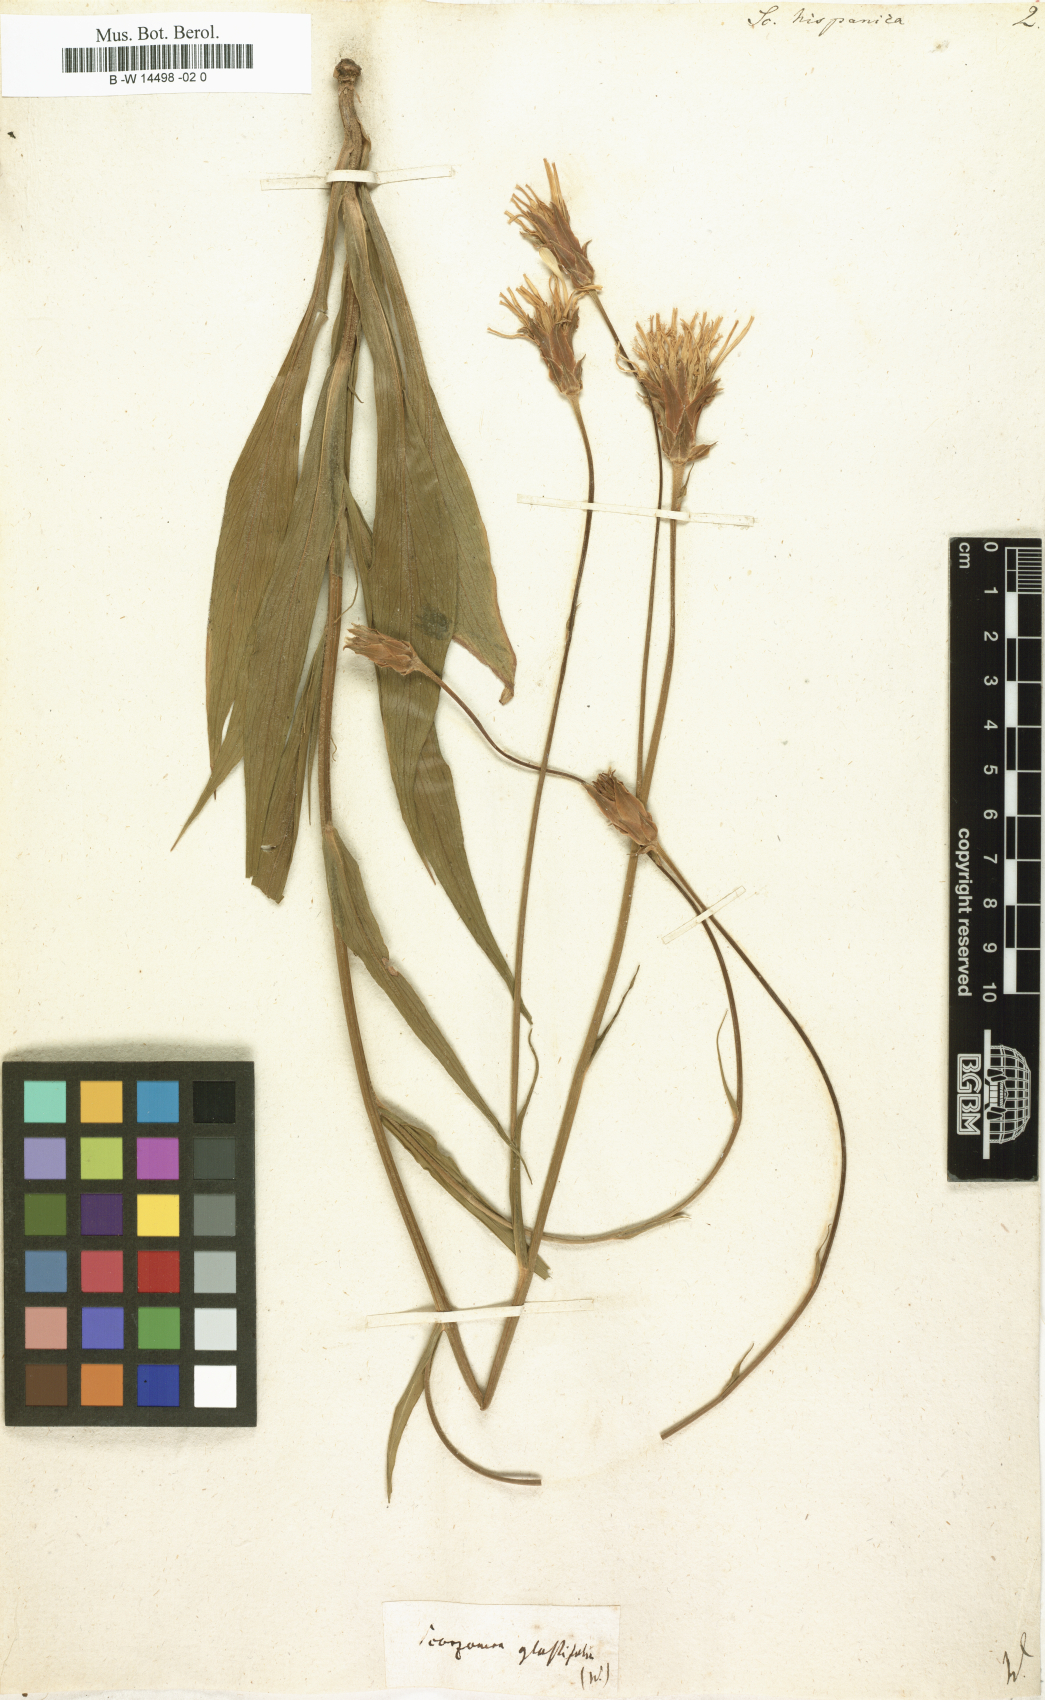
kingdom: Plantae
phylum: Tracheophyta
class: Magnoliopsida
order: Asterales
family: Asteraceae
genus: Pseudopodospermum
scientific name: Pseudopodospermum hispanicum
